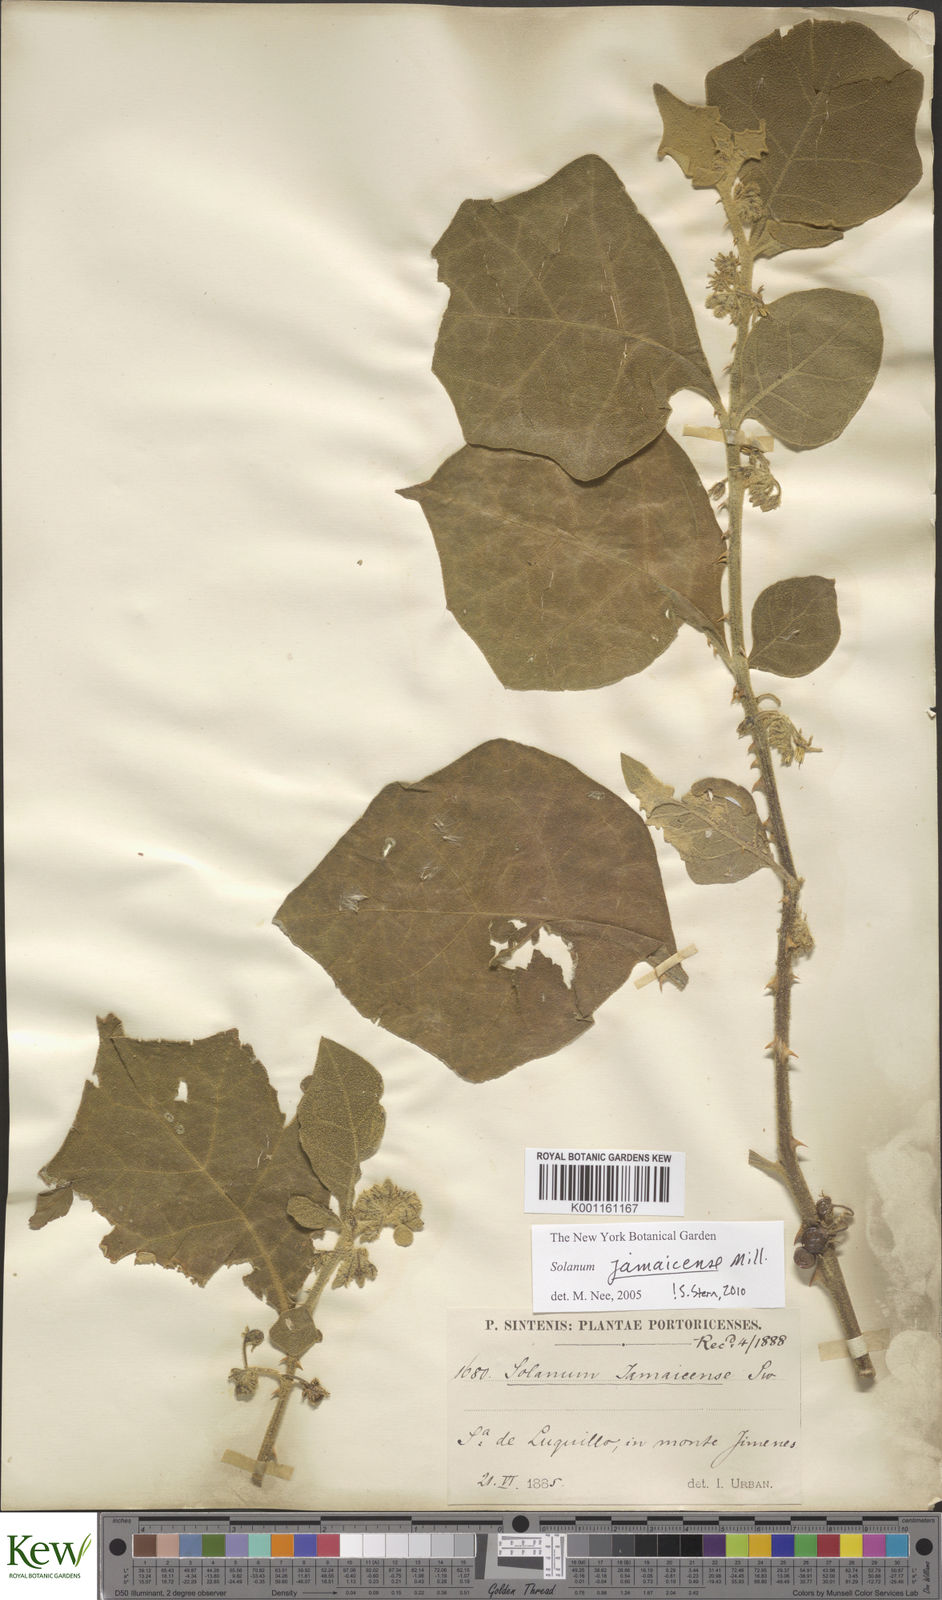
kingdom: Plantae
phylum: Tracheophyta
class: Magnoliopsida
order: Solanales
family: Solanaceae
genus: Solanum
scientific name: Solanum jamaicense
